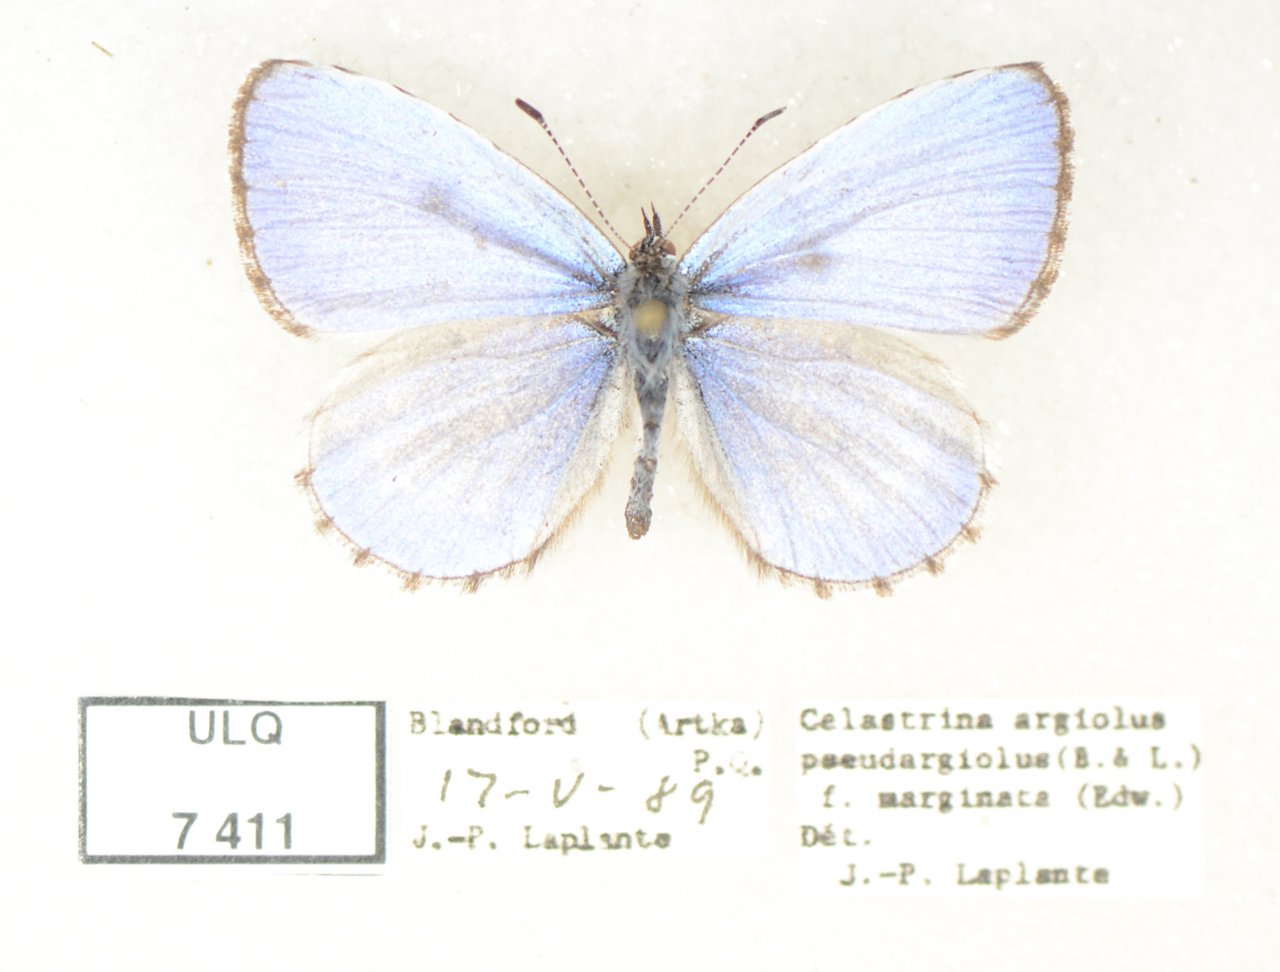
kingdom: Animalia
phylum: Arthropoda
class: Insecta
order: Lepidoptera
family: Lycaenidae
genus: Celastrina
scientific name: Celastrina lucia
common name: Northern Spring Azure
